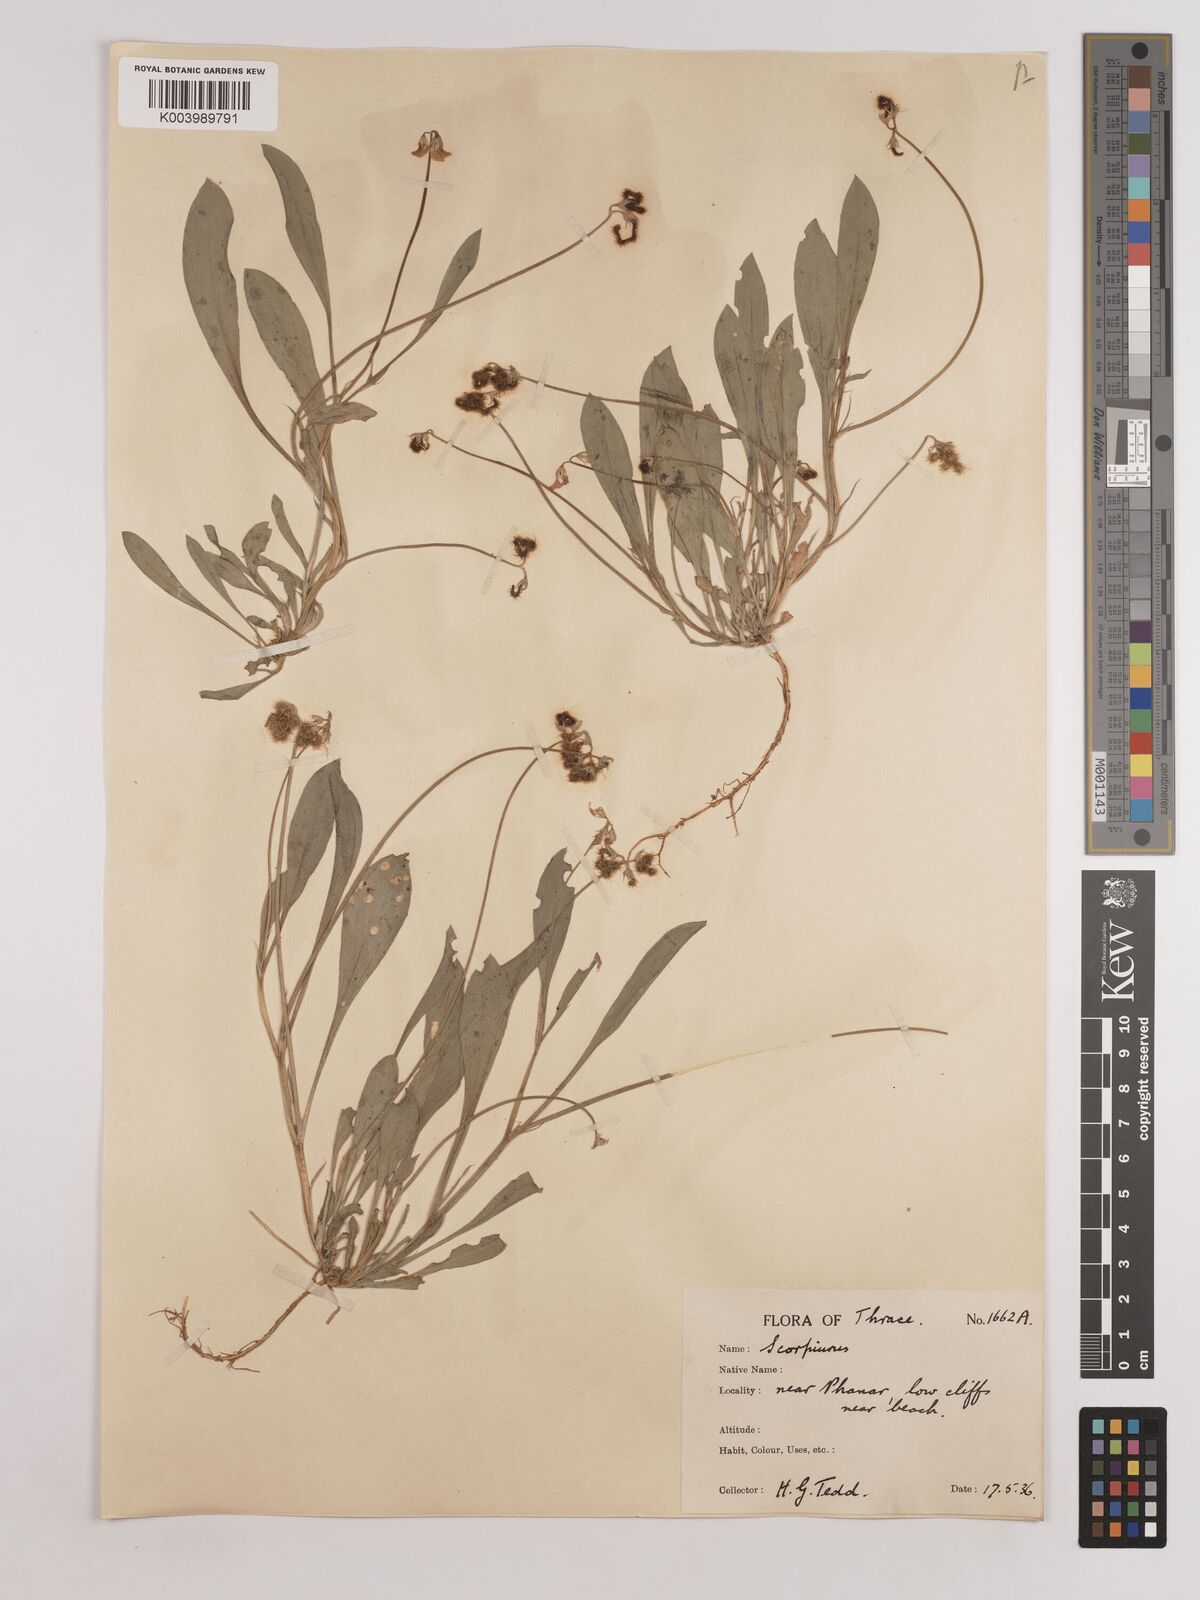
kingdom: Plantae
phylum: Tracheophyta
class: Magnoliopsida
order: Fabales
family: Fabaceae
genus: Scorpiurus
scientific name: Scorpiurus muricatus
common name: Caterpillar-plant
